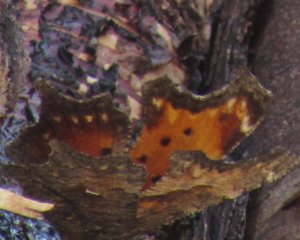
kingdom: Animalia
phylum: Arthropoda
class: Insecta
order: Lepidoptera
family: Nymphalidae
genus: Polygonia
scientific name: Polygonia progne
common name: Gray Comma
